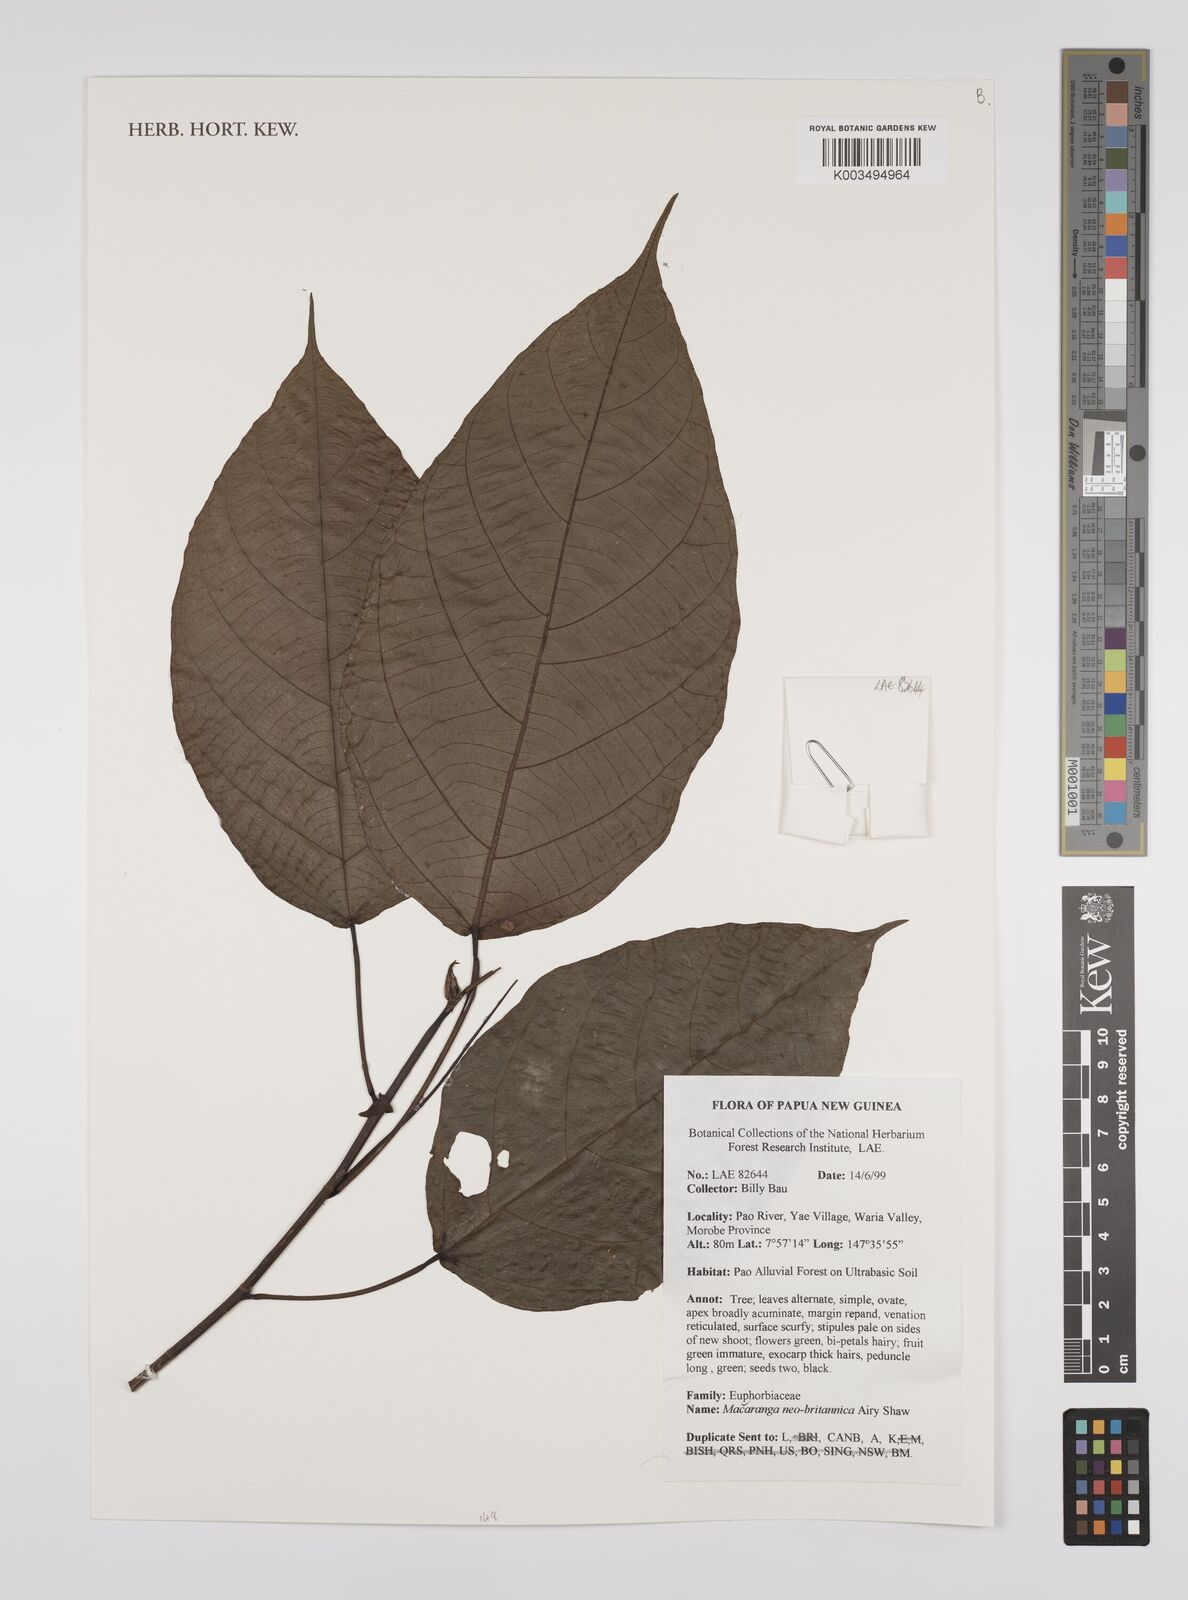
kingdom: Plantae
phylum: Tracheophyta
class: Magnoliopsida
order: Malpighiales
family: Euphorbiaceae
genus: Macaranga
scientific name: Macaranga neobritannica
